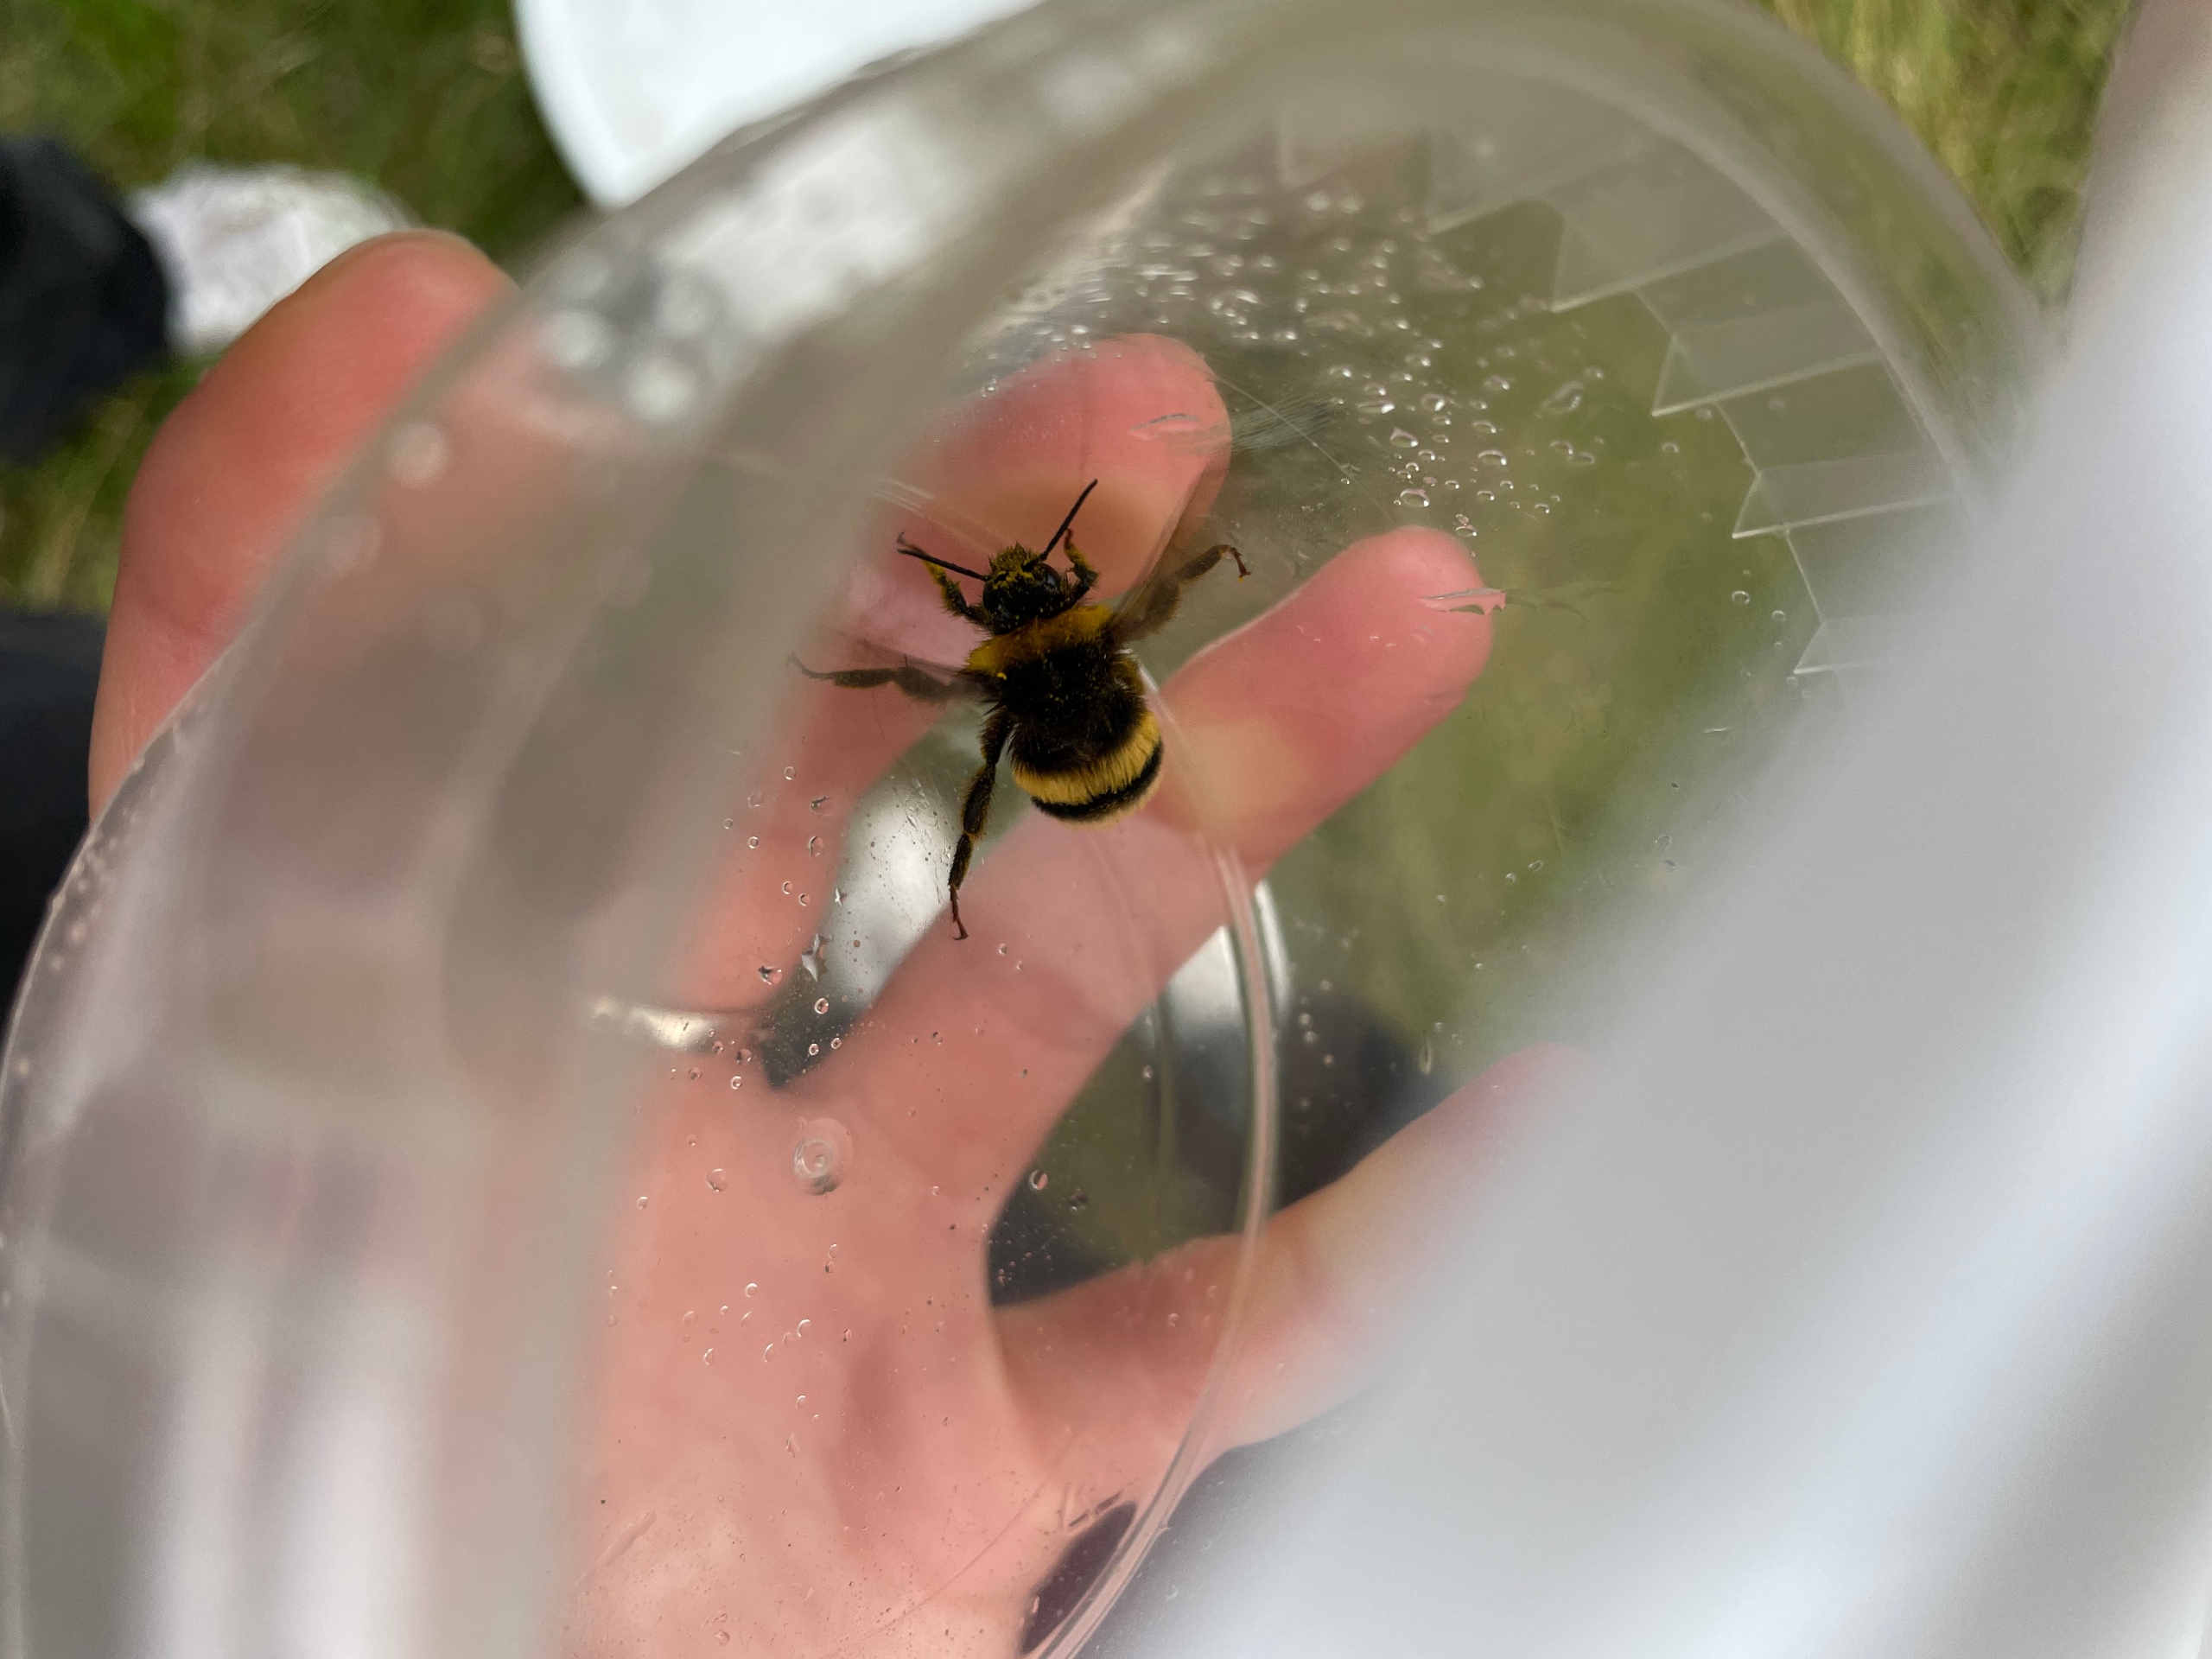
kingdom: Animalia
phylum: Arthropoda
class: Insecta
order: Hymenoptera
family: Apidae
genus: Bombus
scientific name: Bombus
